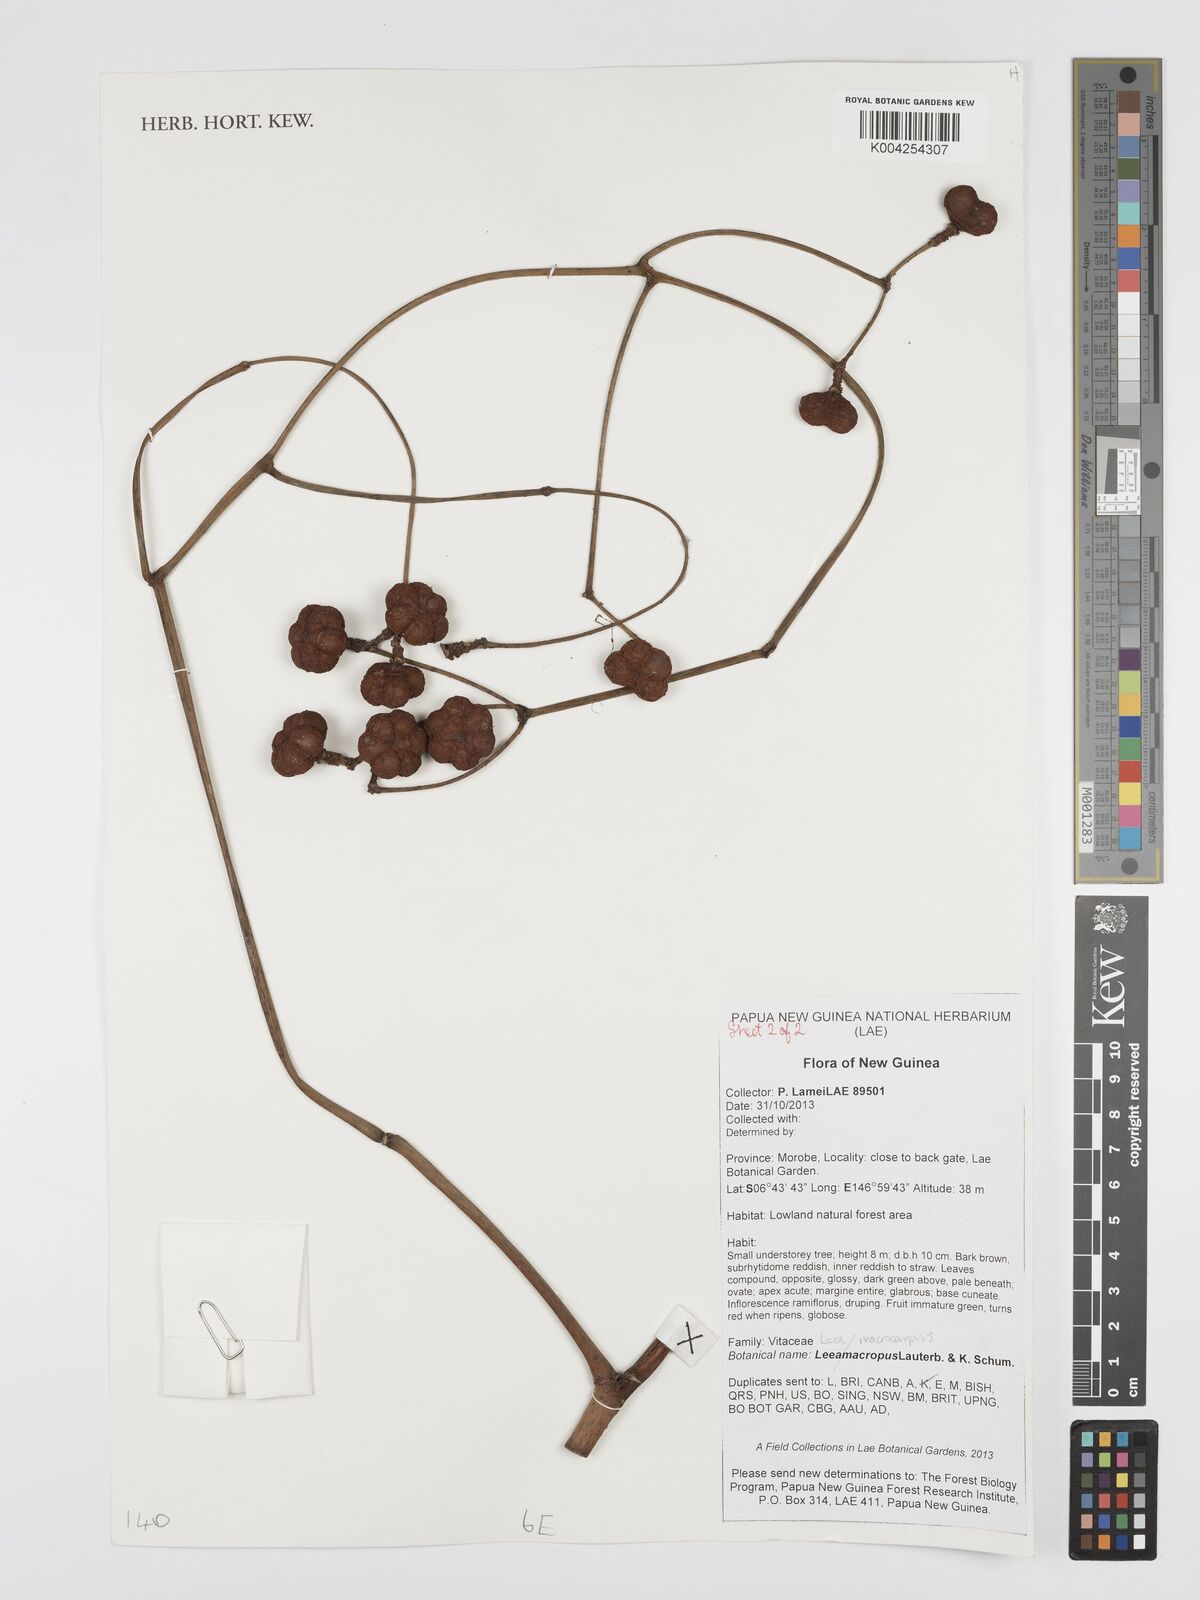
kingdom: Plantae
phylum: Tracheophyta
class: Magnoliopsida
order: Vitales
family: Vitaceae
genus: Leea
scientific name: Leea macropus
